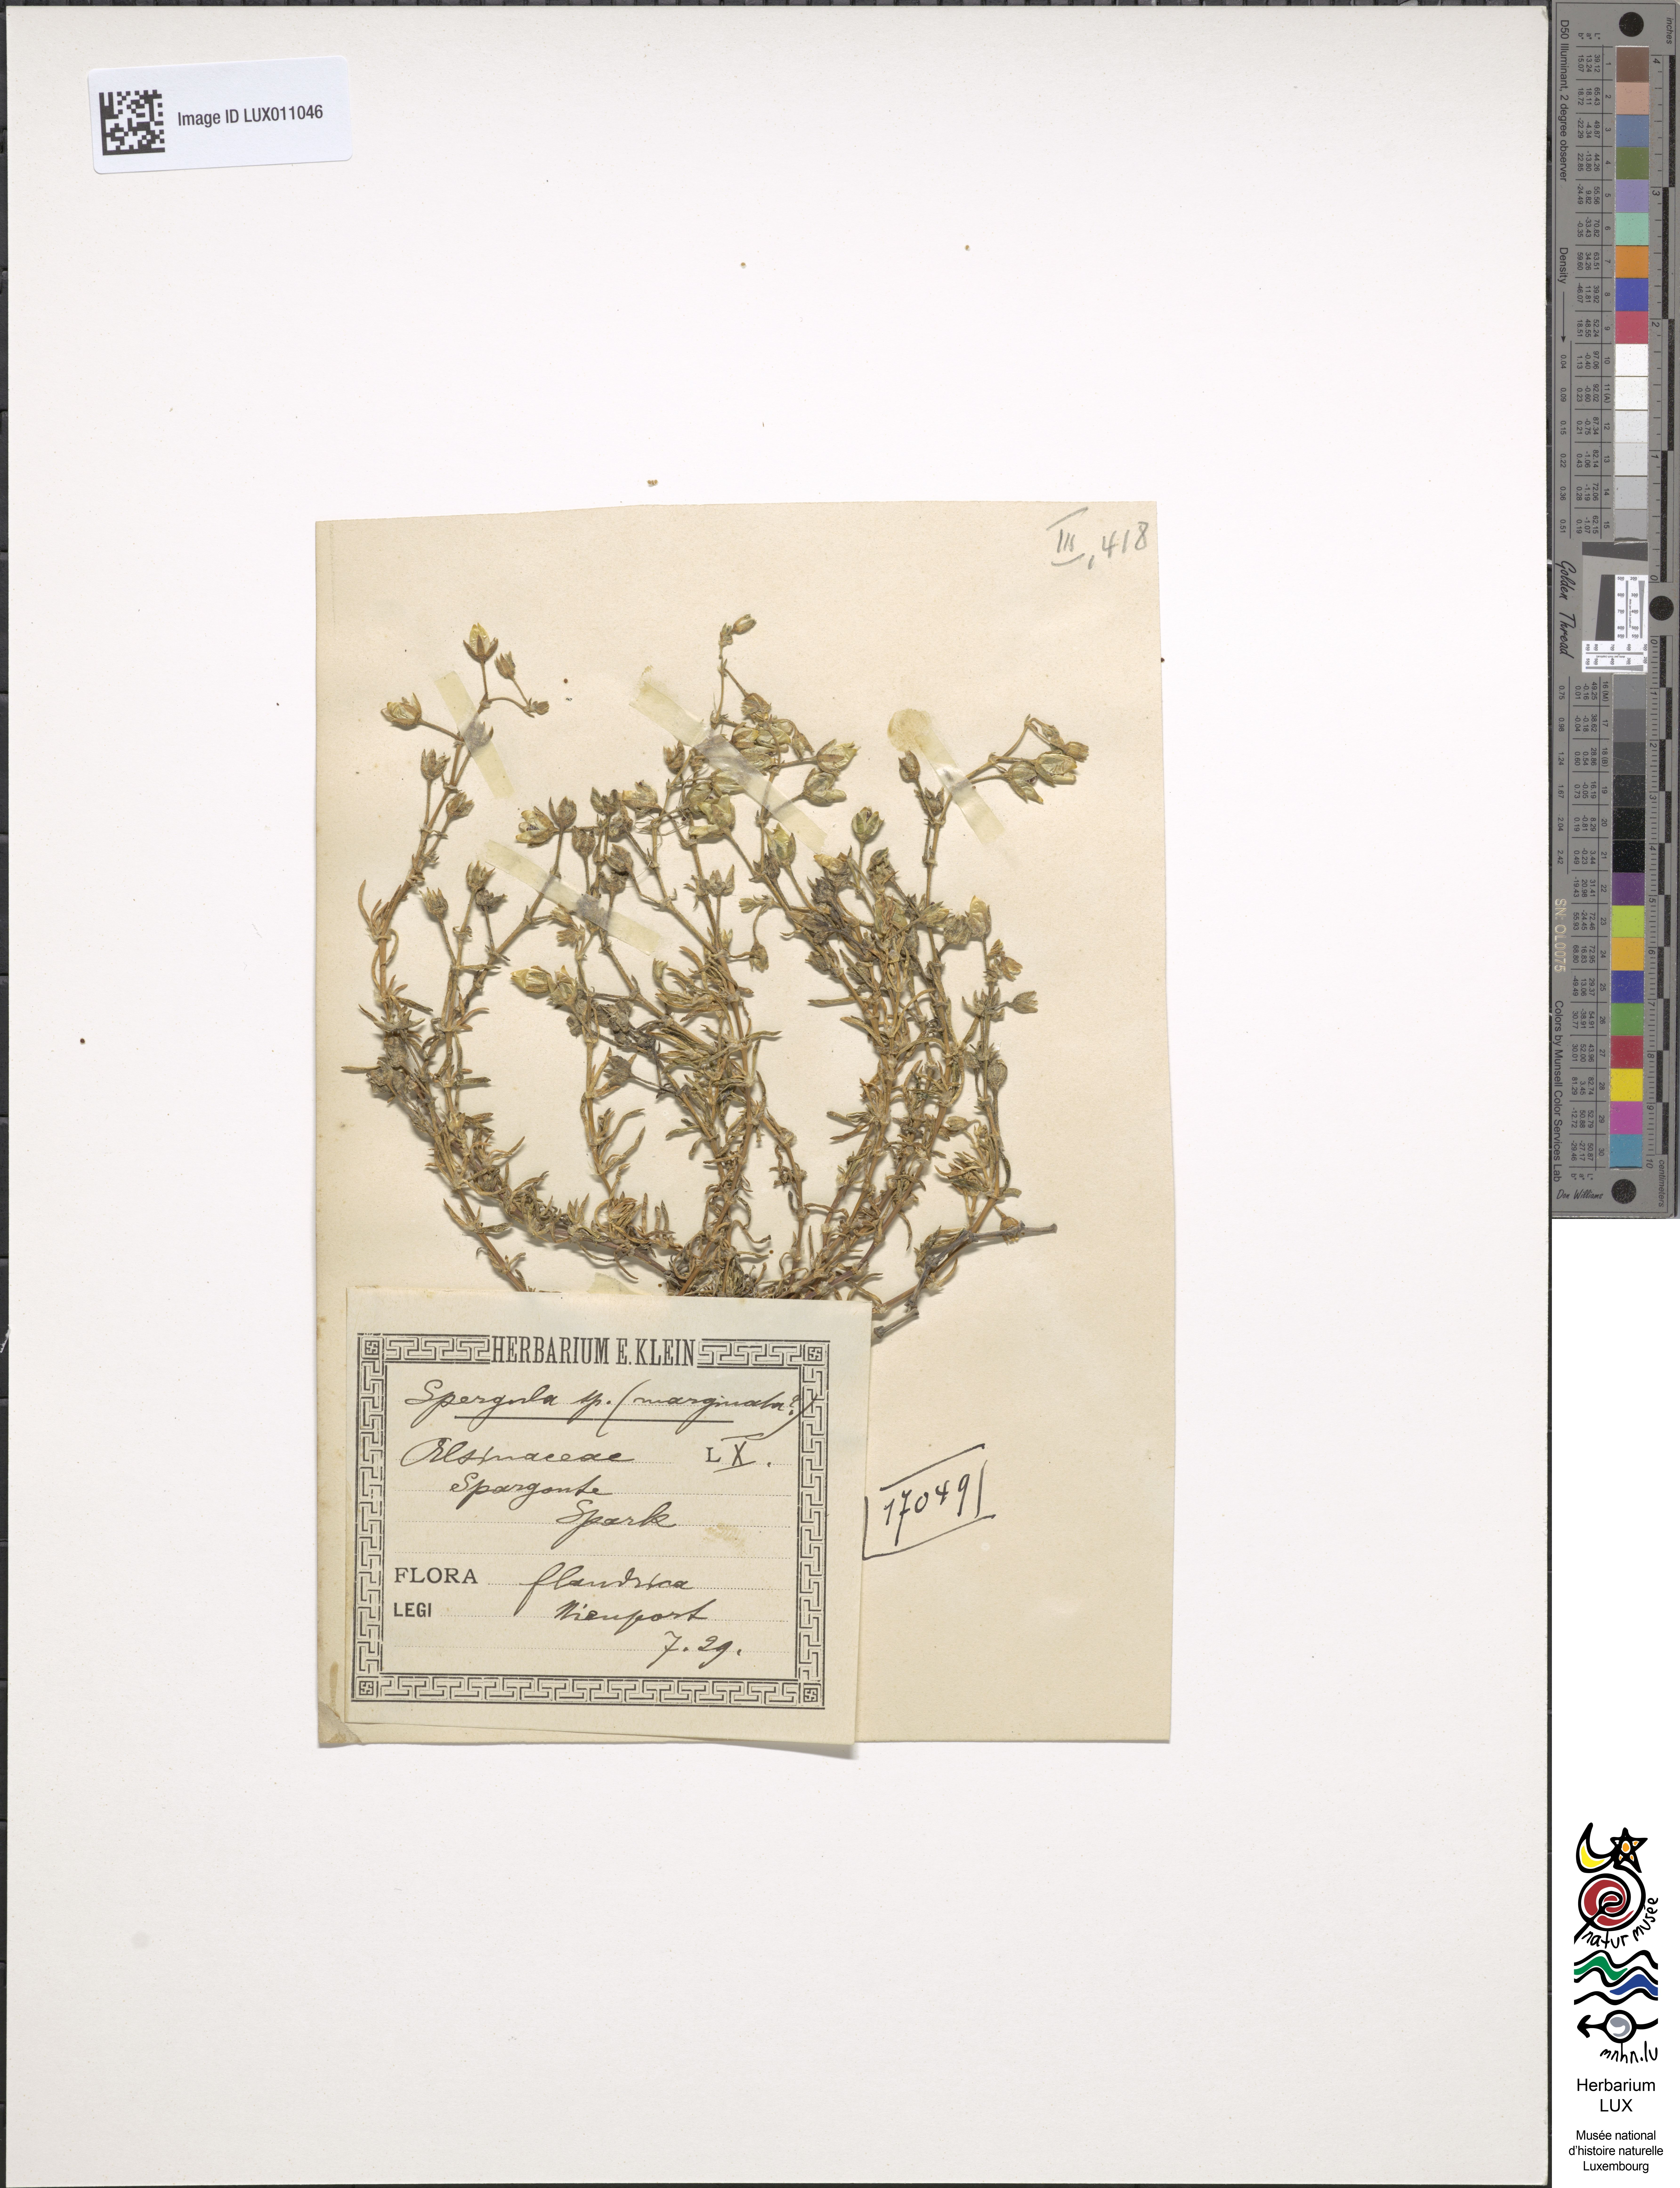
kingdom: Plantae
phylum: Tracheophyta
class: Magnoliopsida
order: Caryophyllales
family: Caryophyllaceae
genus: Spergula
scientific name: Spergula
